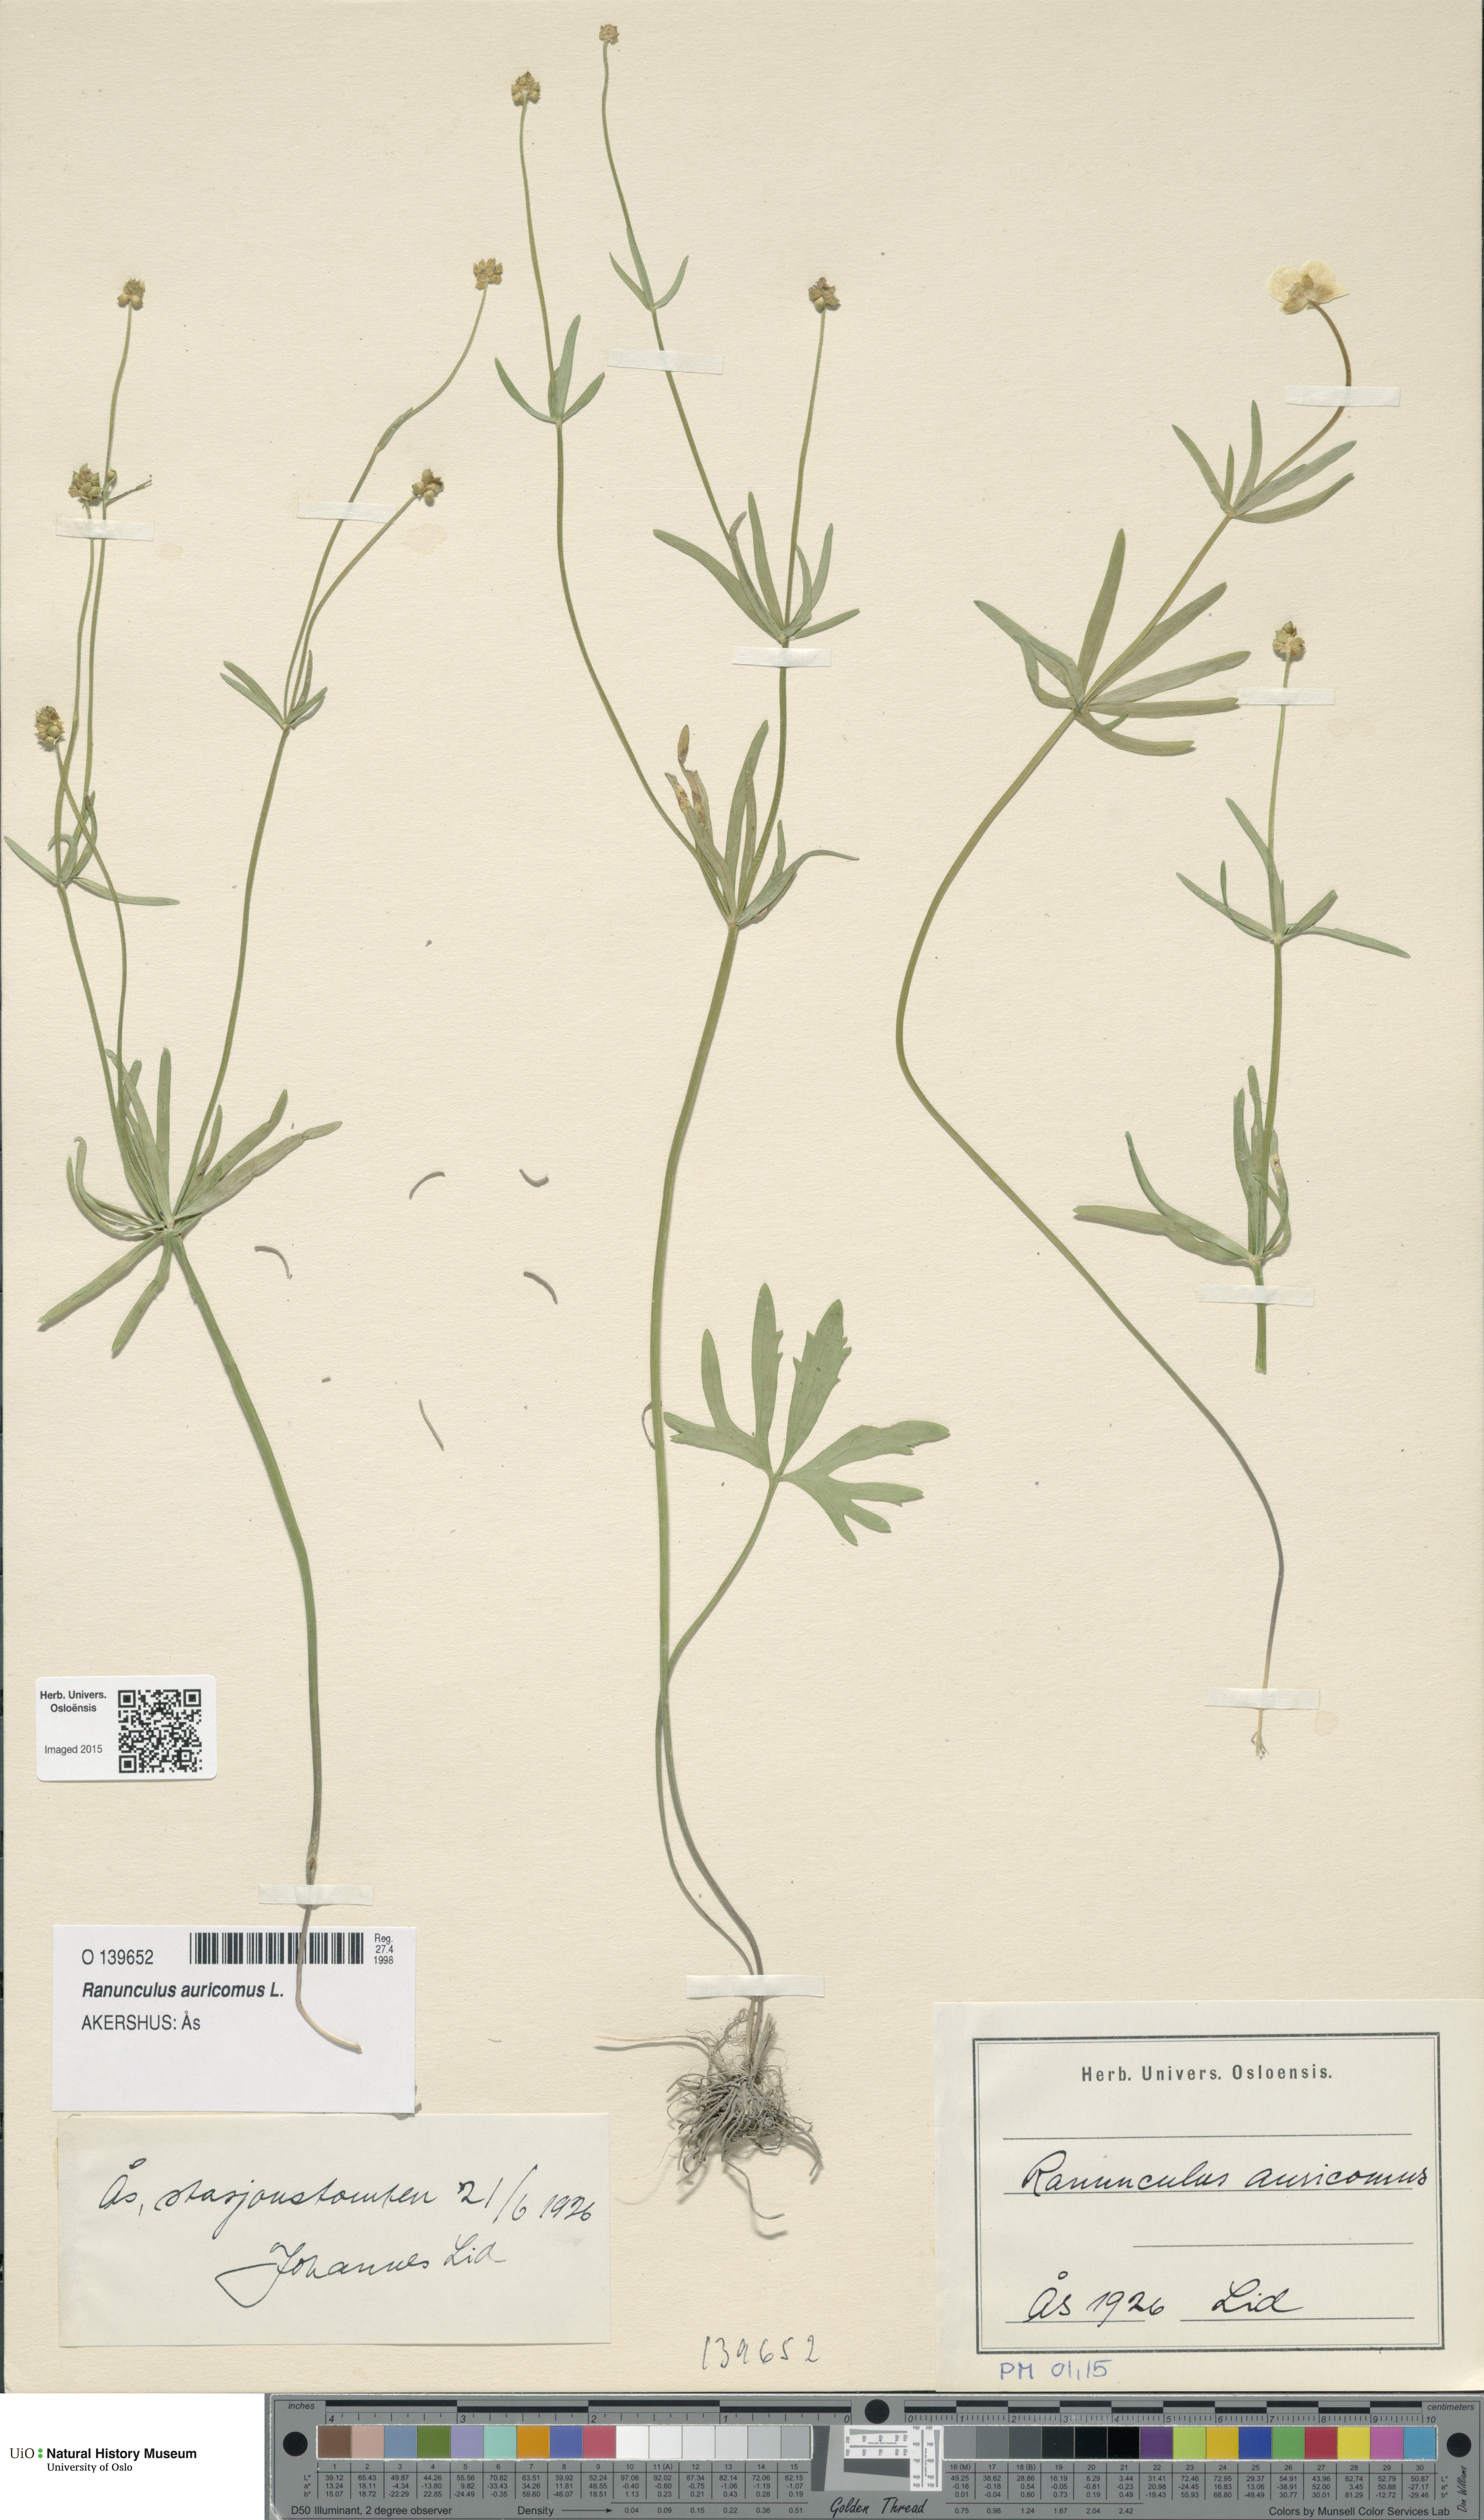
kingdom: Plantae
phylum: Tracheophyta
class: Magnoliopsida
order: Ranunculales
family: Ranunculaceae
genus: Ranunculus
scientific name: Ranunculus auricomus
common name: Goldilocks buttercup
